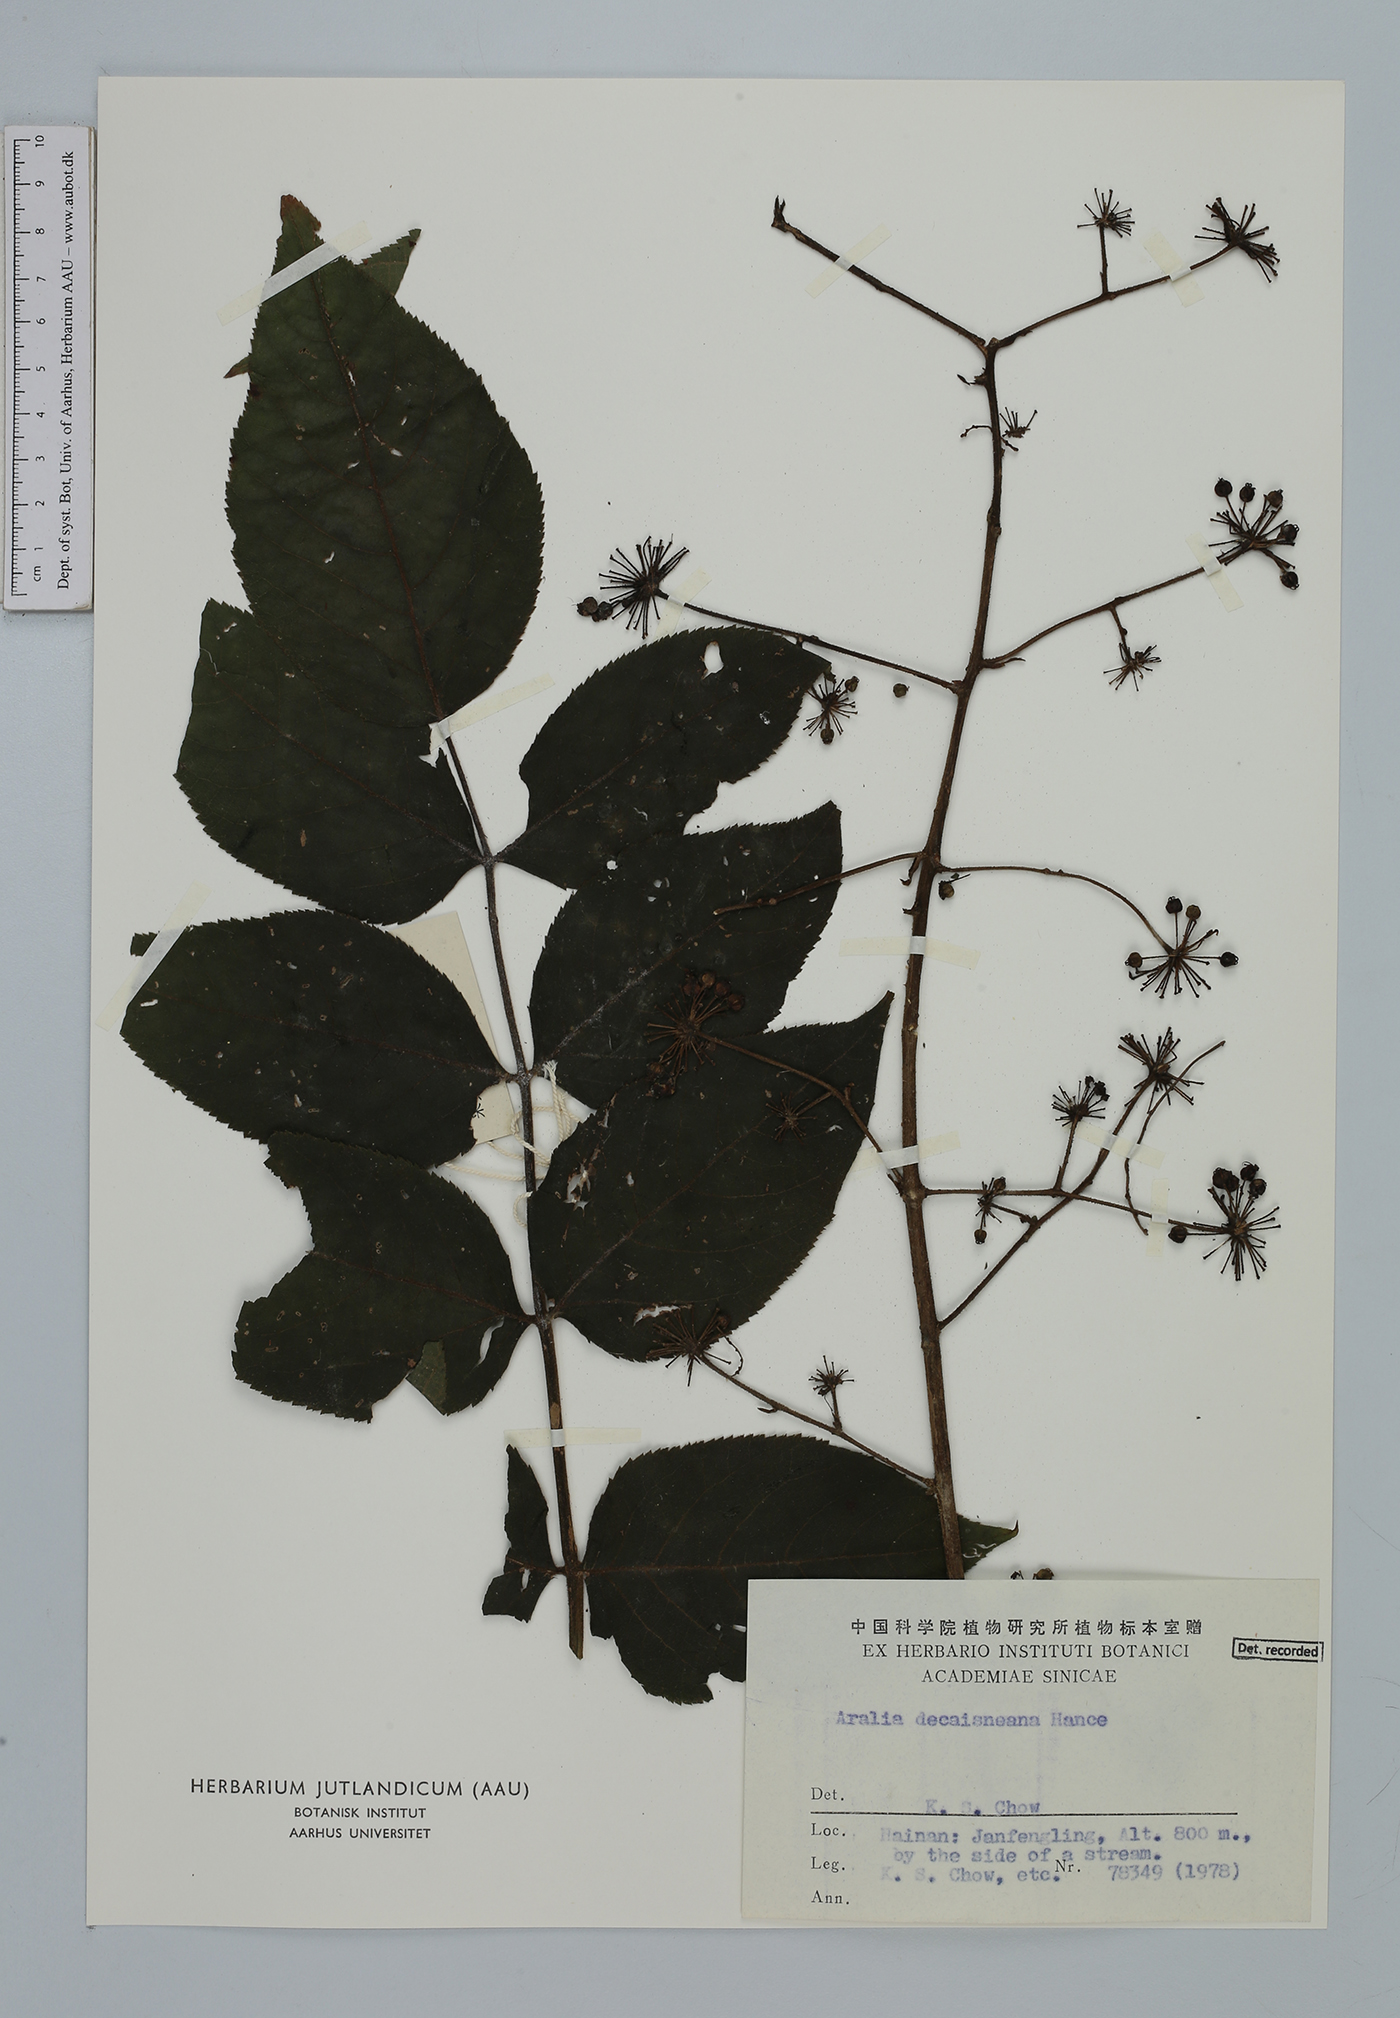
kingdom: Plantae
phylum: Tracheophyta
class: Magnoliopsida
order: Apiales
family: Araliaceae
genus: Aralia
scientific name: Aralia decaisneana
